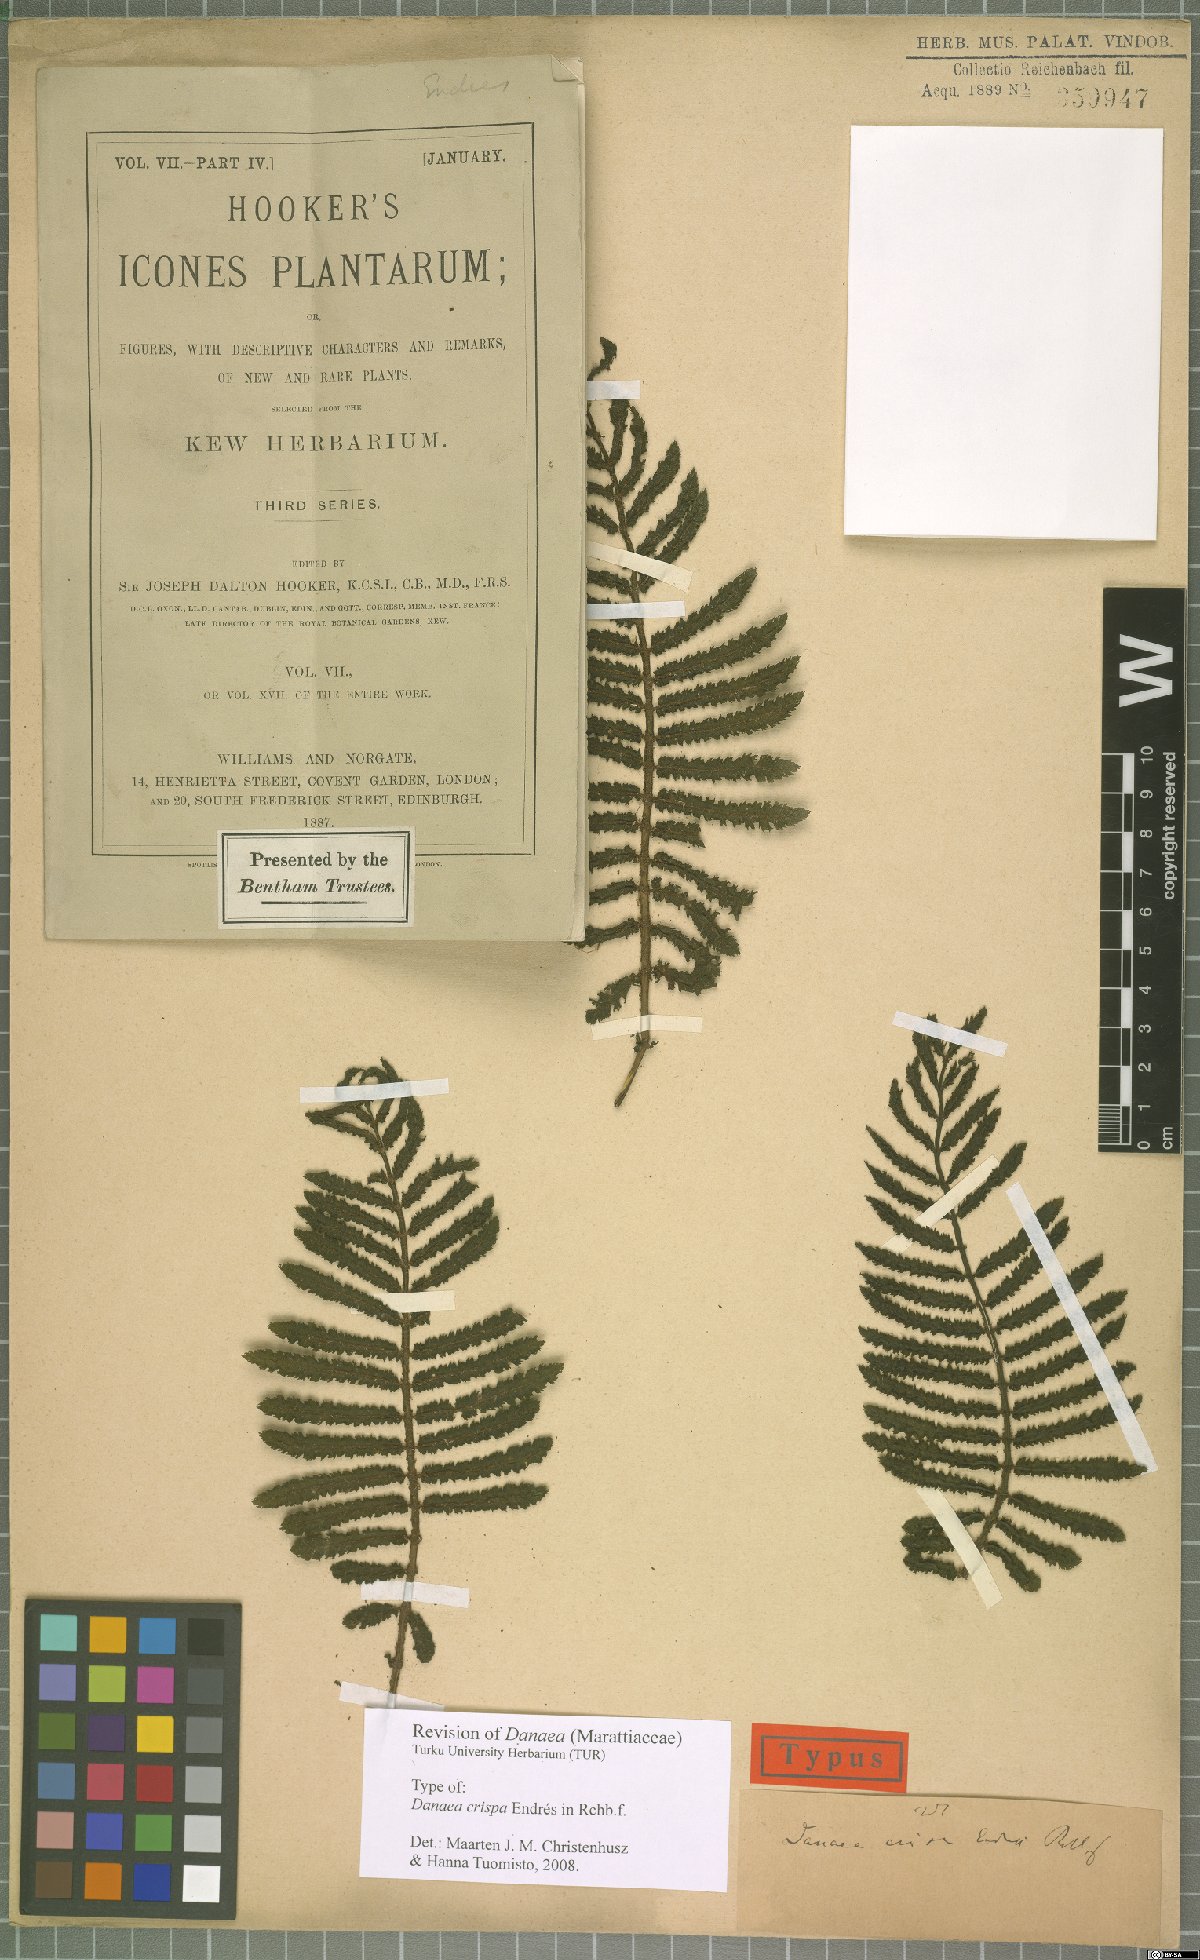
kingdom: Plantae
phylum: Tracheophyta
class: Polypodiopsida
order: Marattiales
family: Marattiaceae
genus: Danaea
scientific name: Danaea crispa
